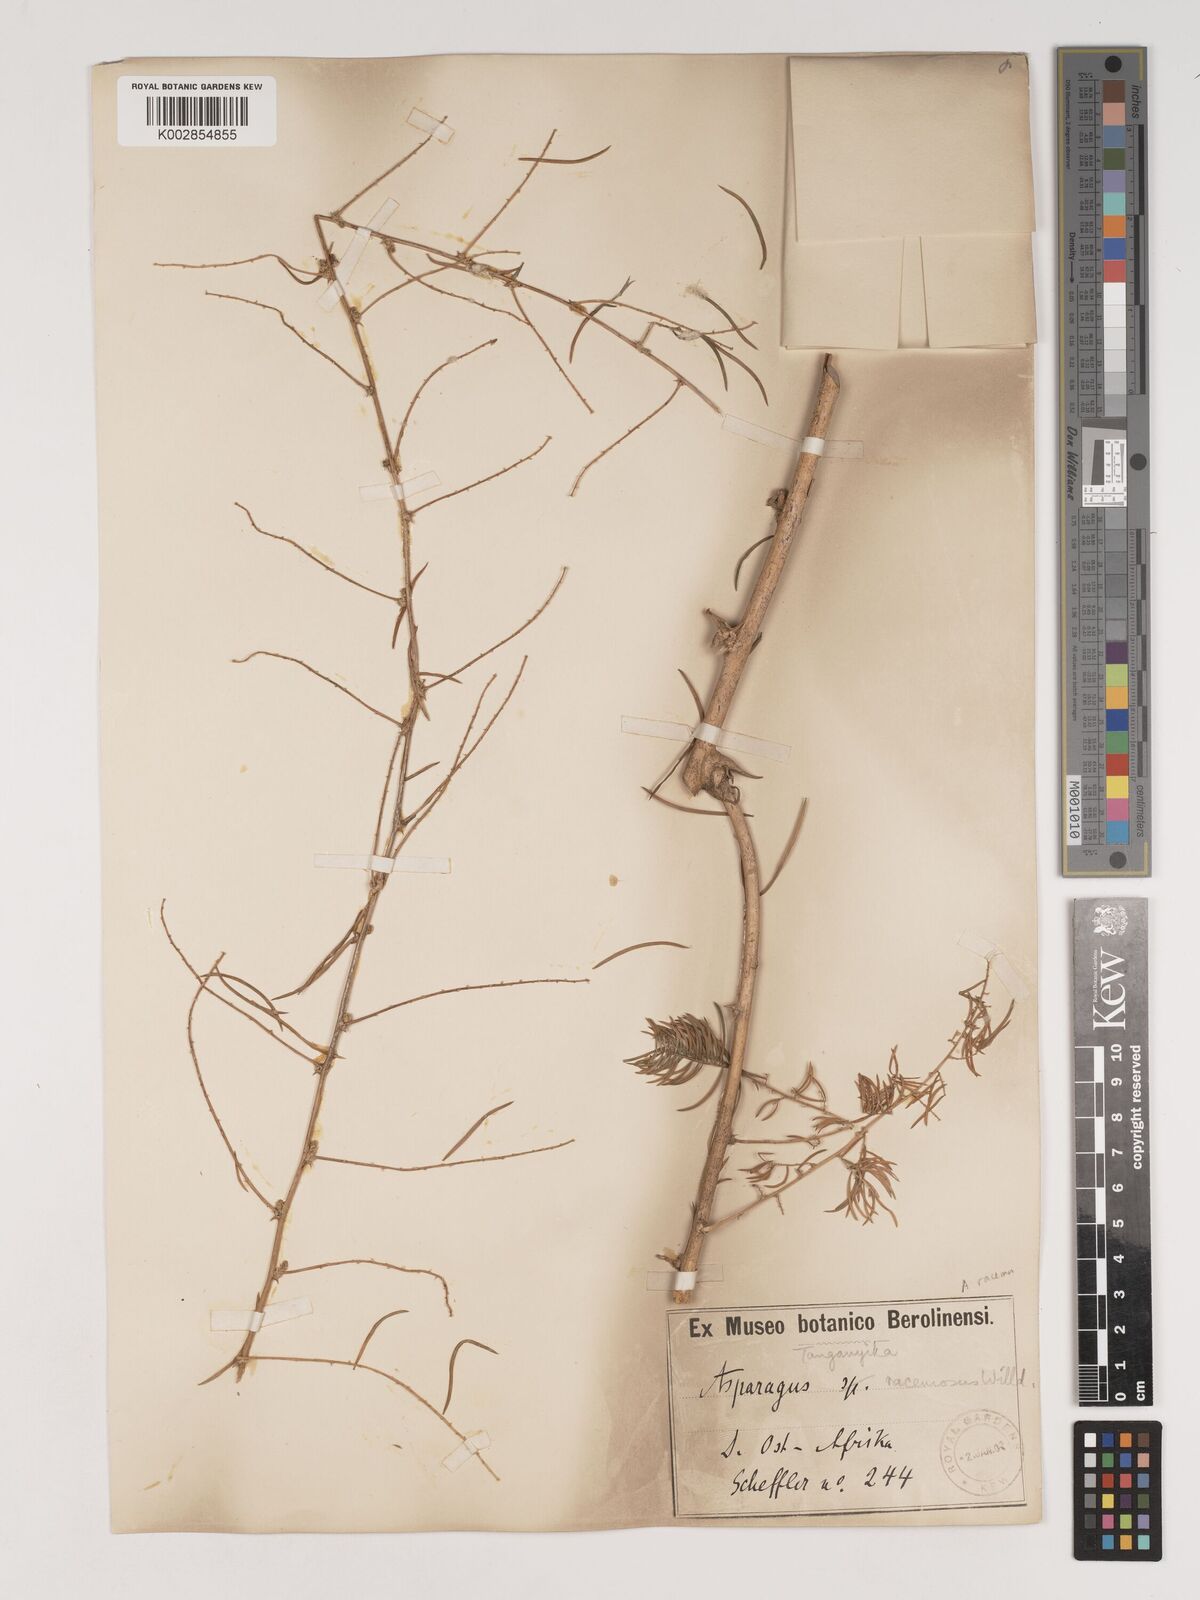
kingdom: Plantae
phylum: Tracheophyta
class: Liliopsida
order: Asparagales
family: Asparagaceae
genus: Asparagus
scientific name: Asparagus racemosus
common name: Asparagus-fern
